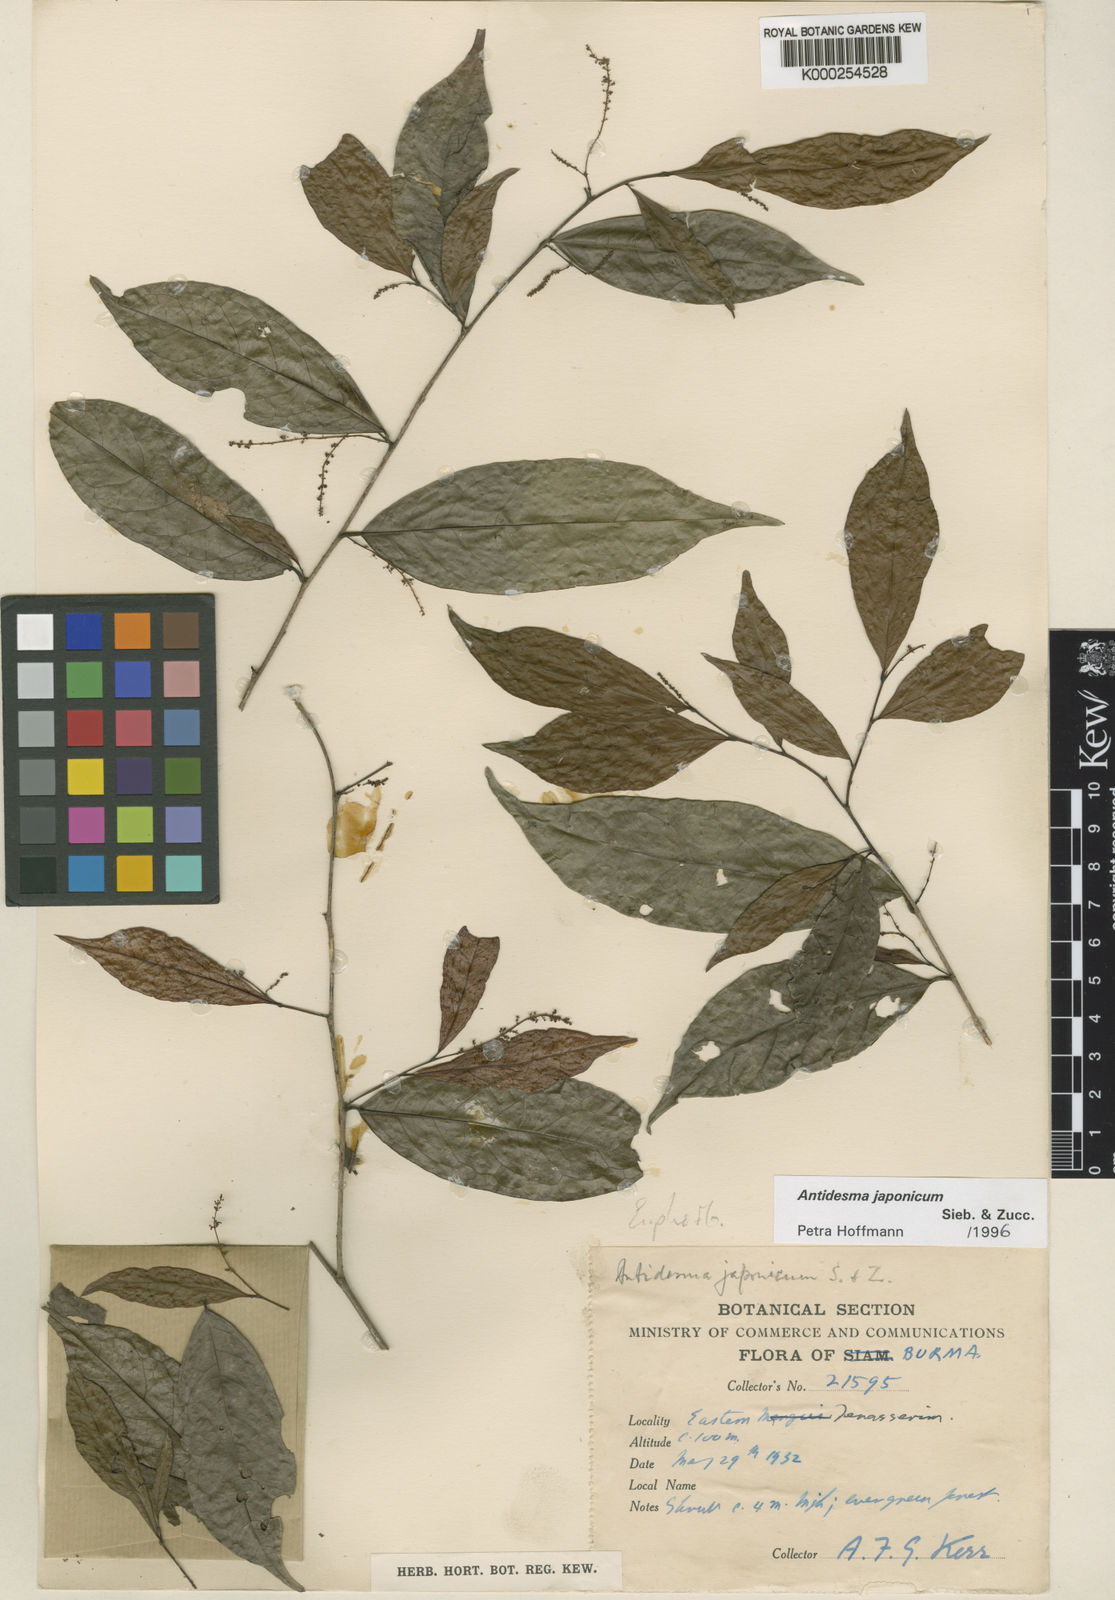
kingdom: Plantae
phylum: Tracheophyta
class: Magnoliopsida
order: Malpighiales
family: Phyllanthaceae
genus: Antidesma
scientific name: Antidesma japonicum
